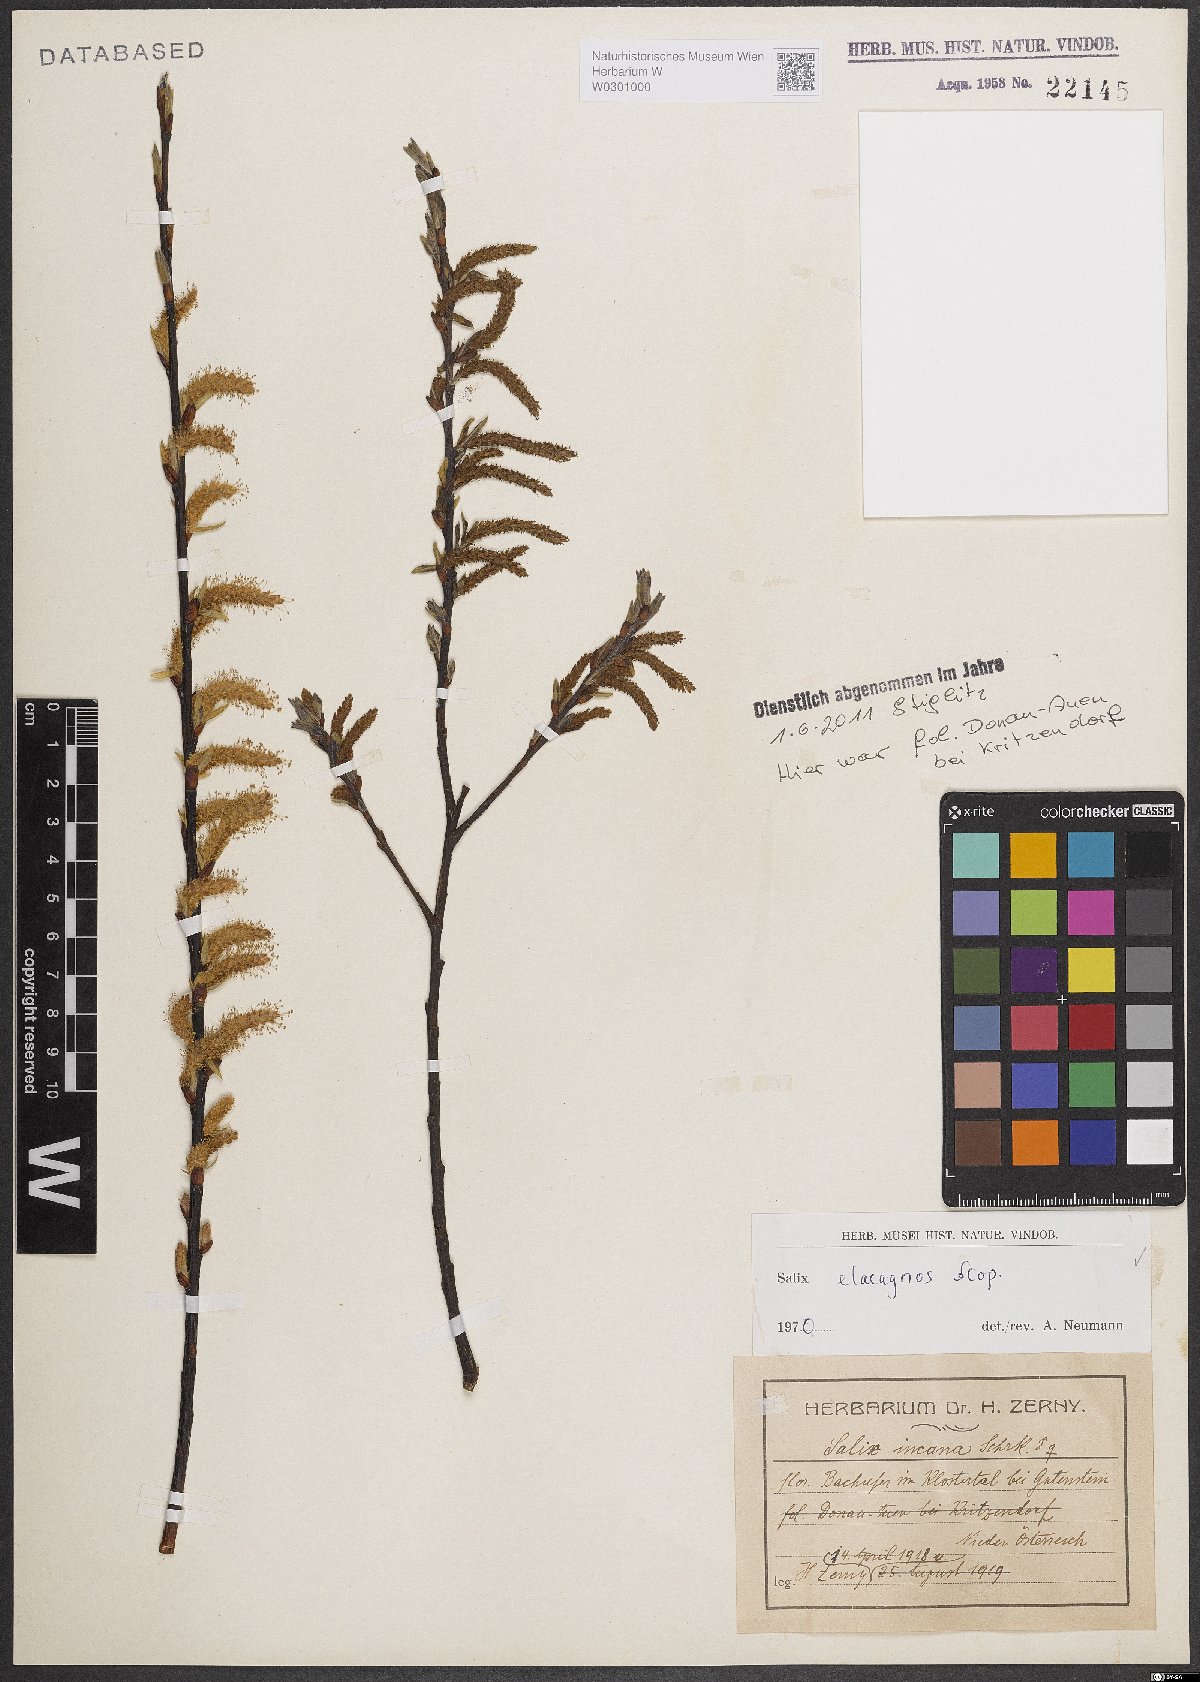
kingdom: Plantae
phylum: Tracheophyta
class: Magnoliopsida
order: Malpighiales
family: Salicaceae
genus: Salix
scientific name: Salix eleagnos
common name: Elaeagnus willow
